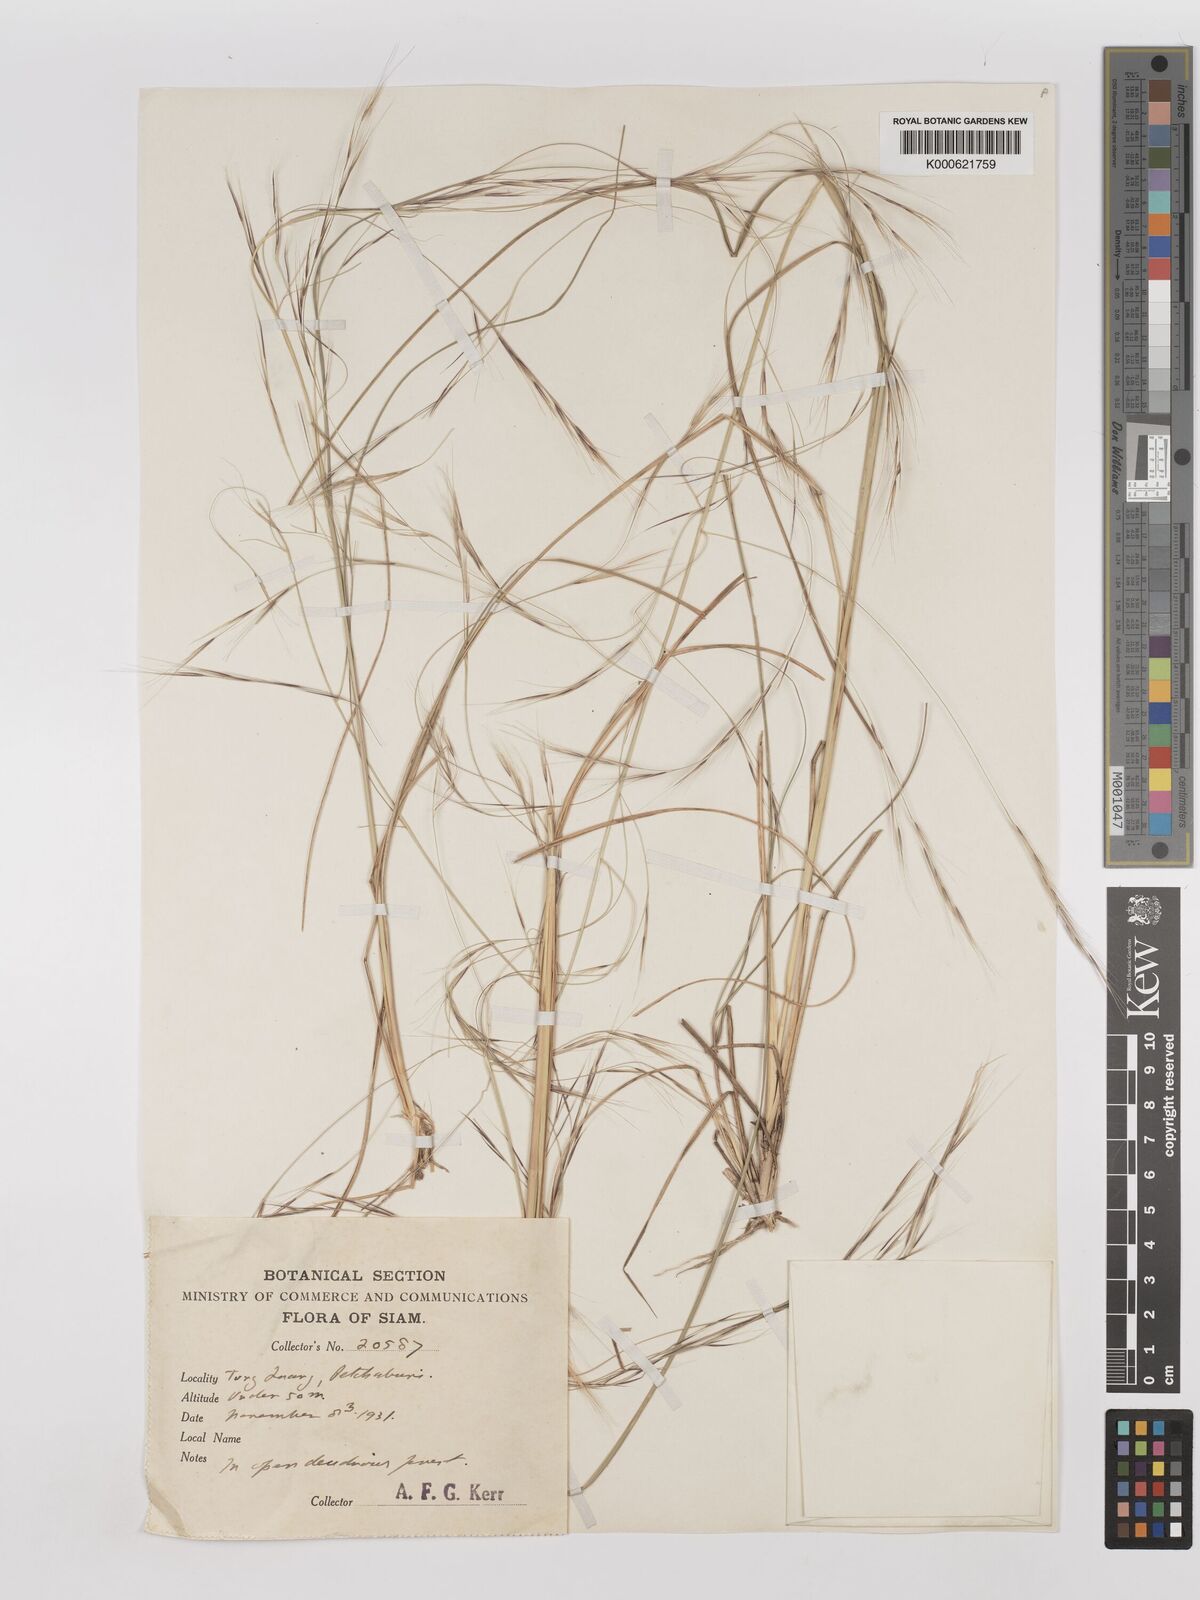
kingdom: Plantae
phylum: Tracheophyta
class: Liliopsida
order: Poales
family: Poaceae
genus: Aristida
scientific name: Aristida
